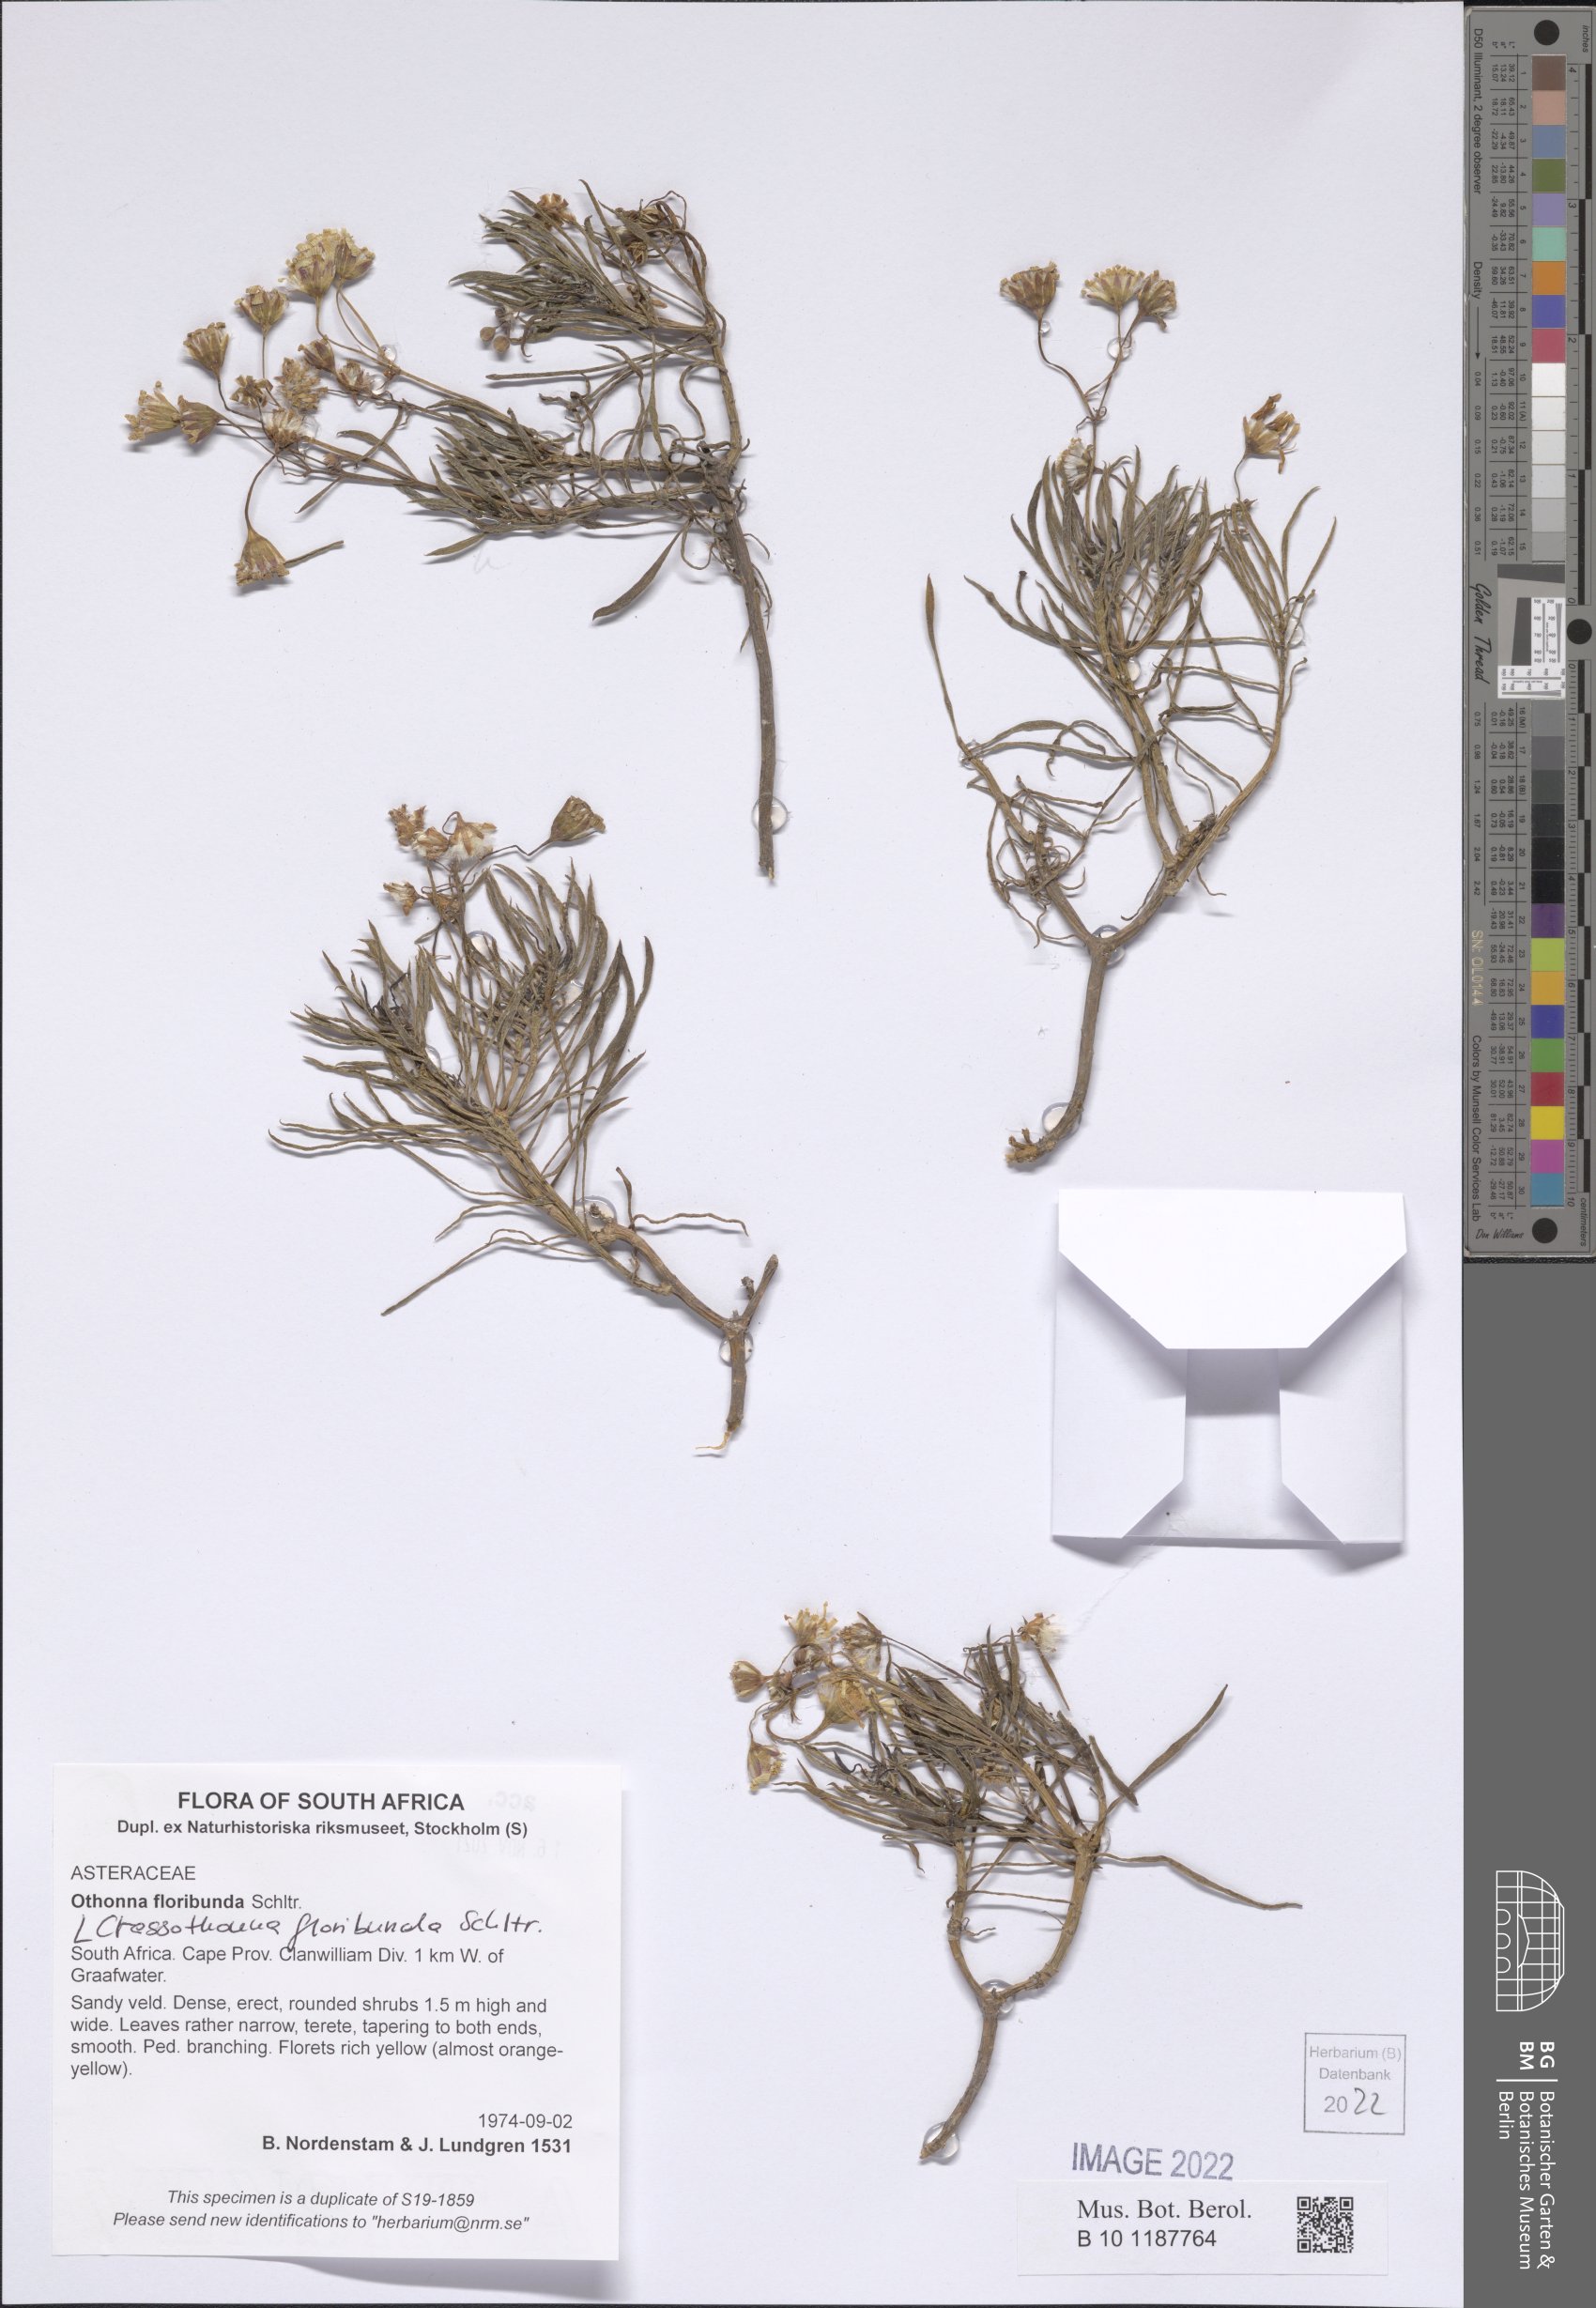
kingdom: Plantae
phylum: Tracheophyta
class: Magnoliopsida
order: Asterales
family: Asteraceae
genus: Crassothonna
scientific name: Crassothonna floribunda
